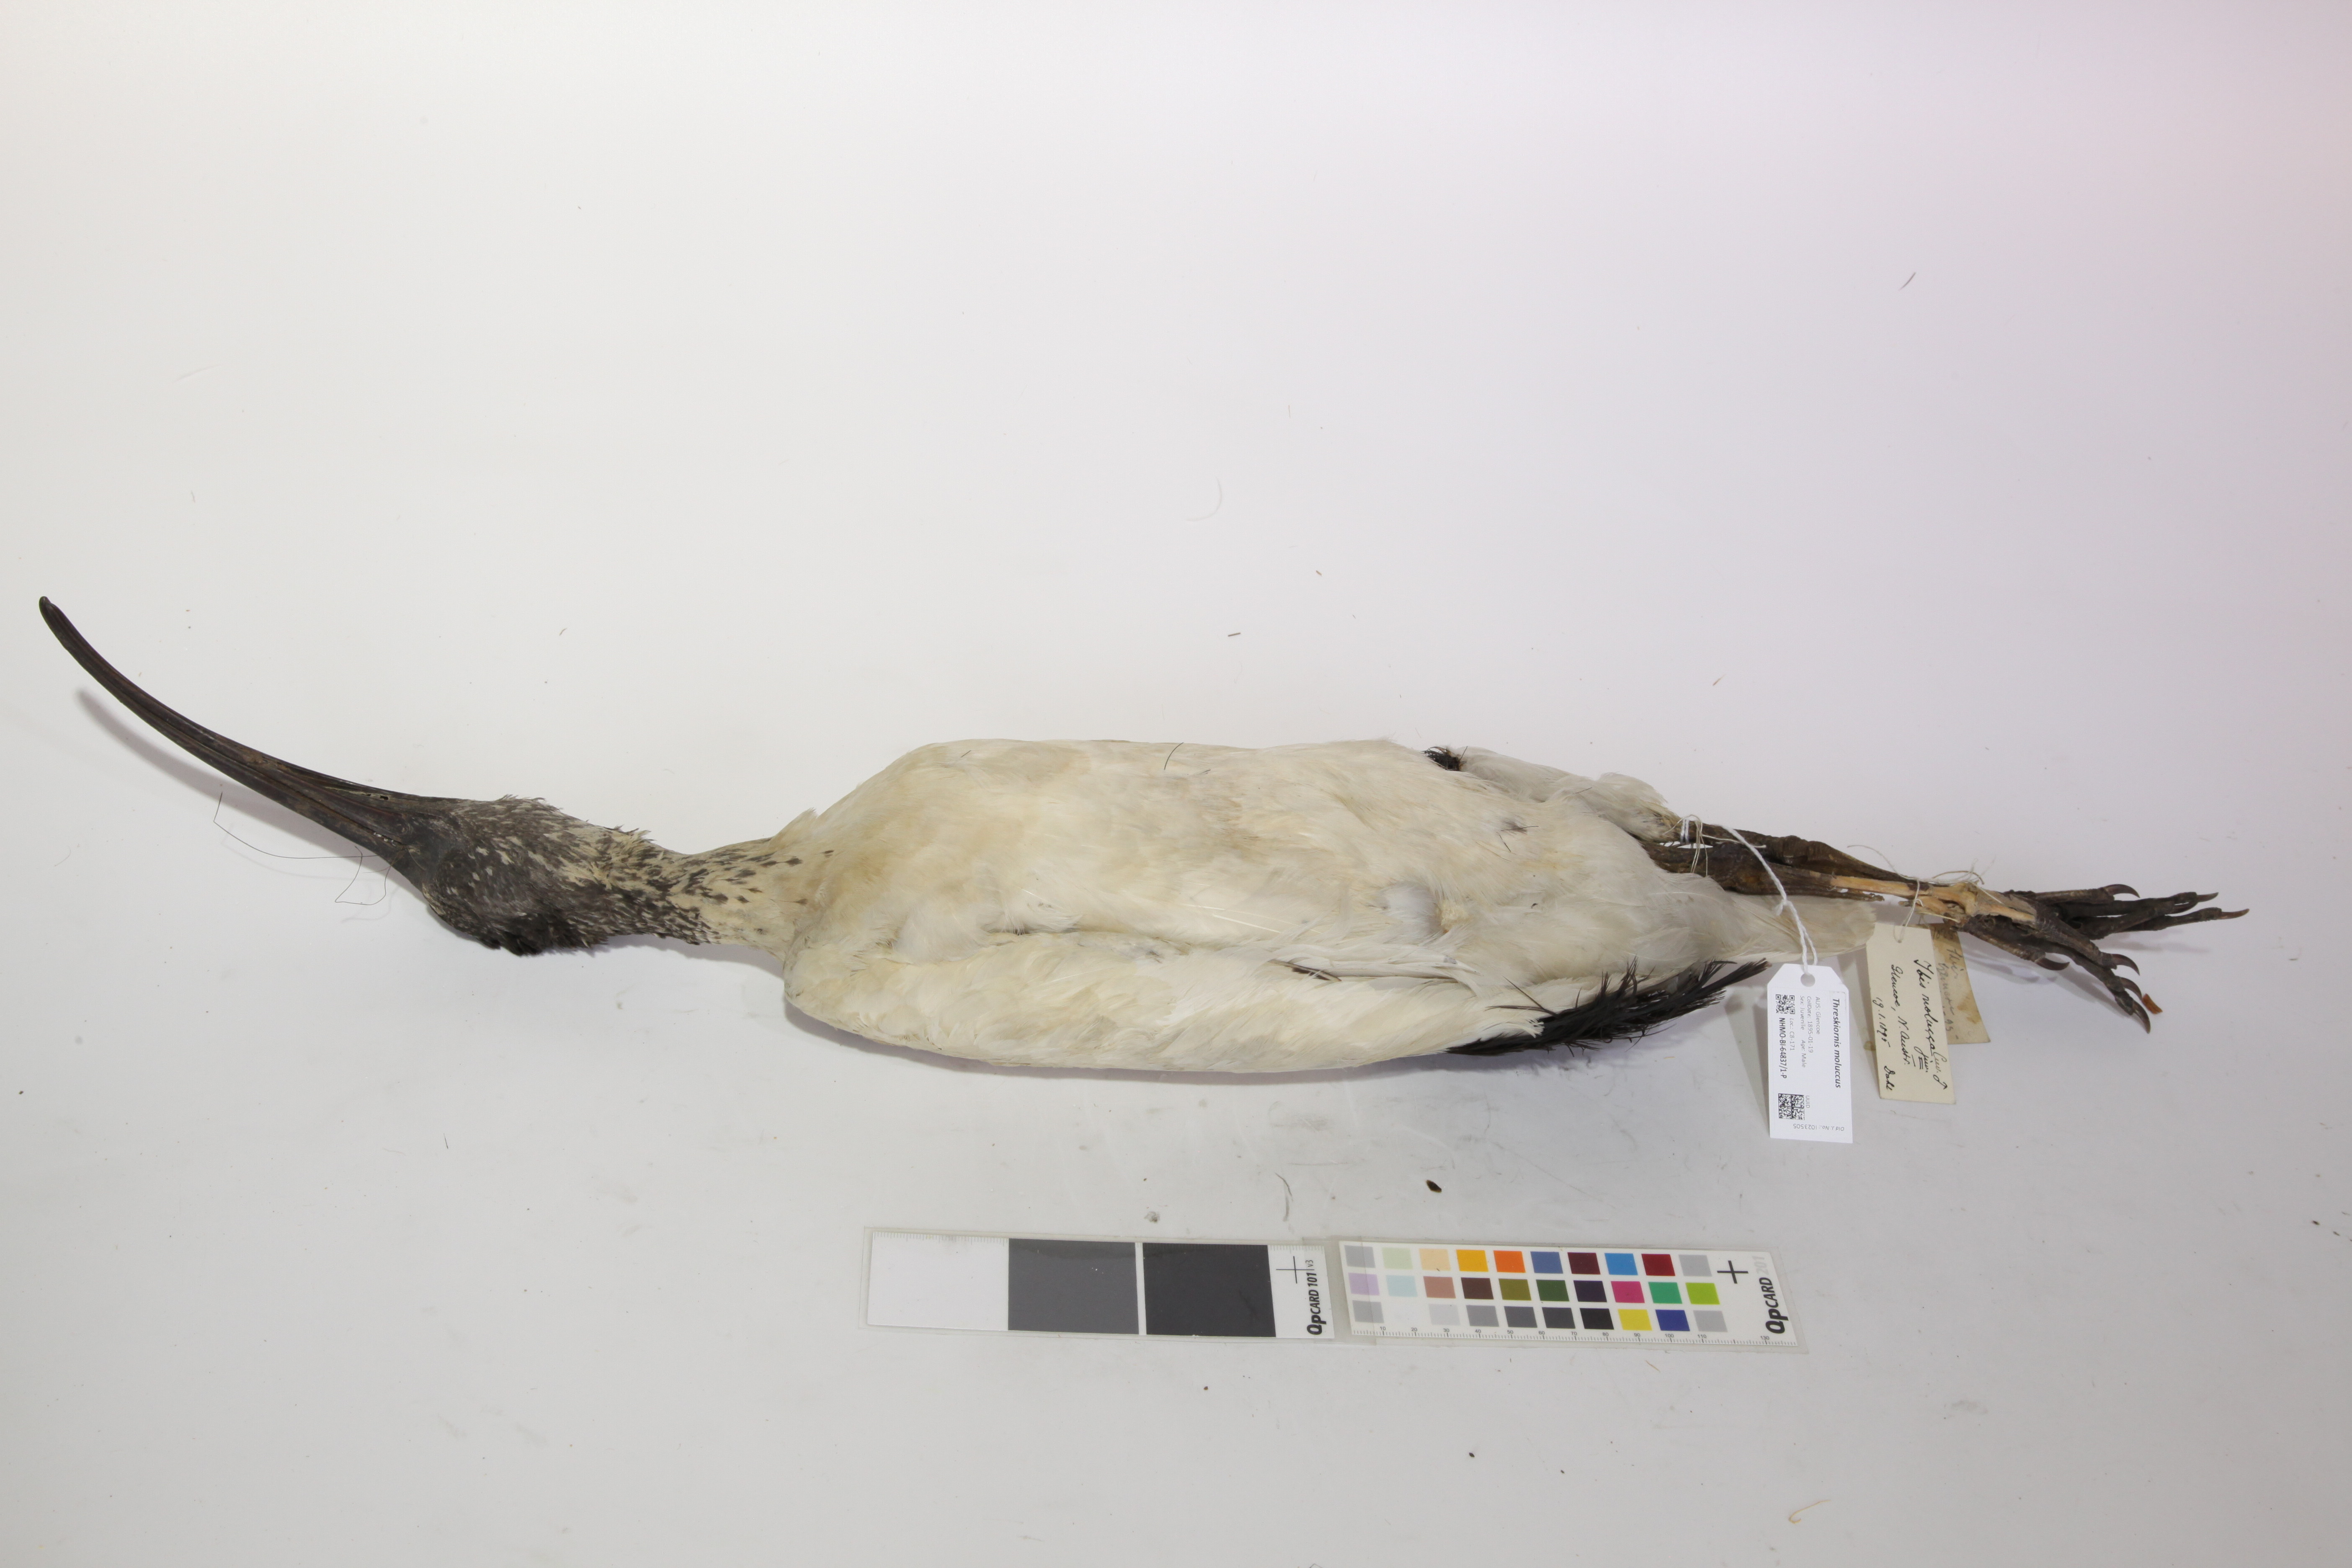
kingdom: Animalia
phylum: Chordata
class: Aves
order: Pelecaniformes
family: Threskiornithidae
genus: Threskiornis
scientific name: Threskiornis molucca
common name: Australian white ibis
